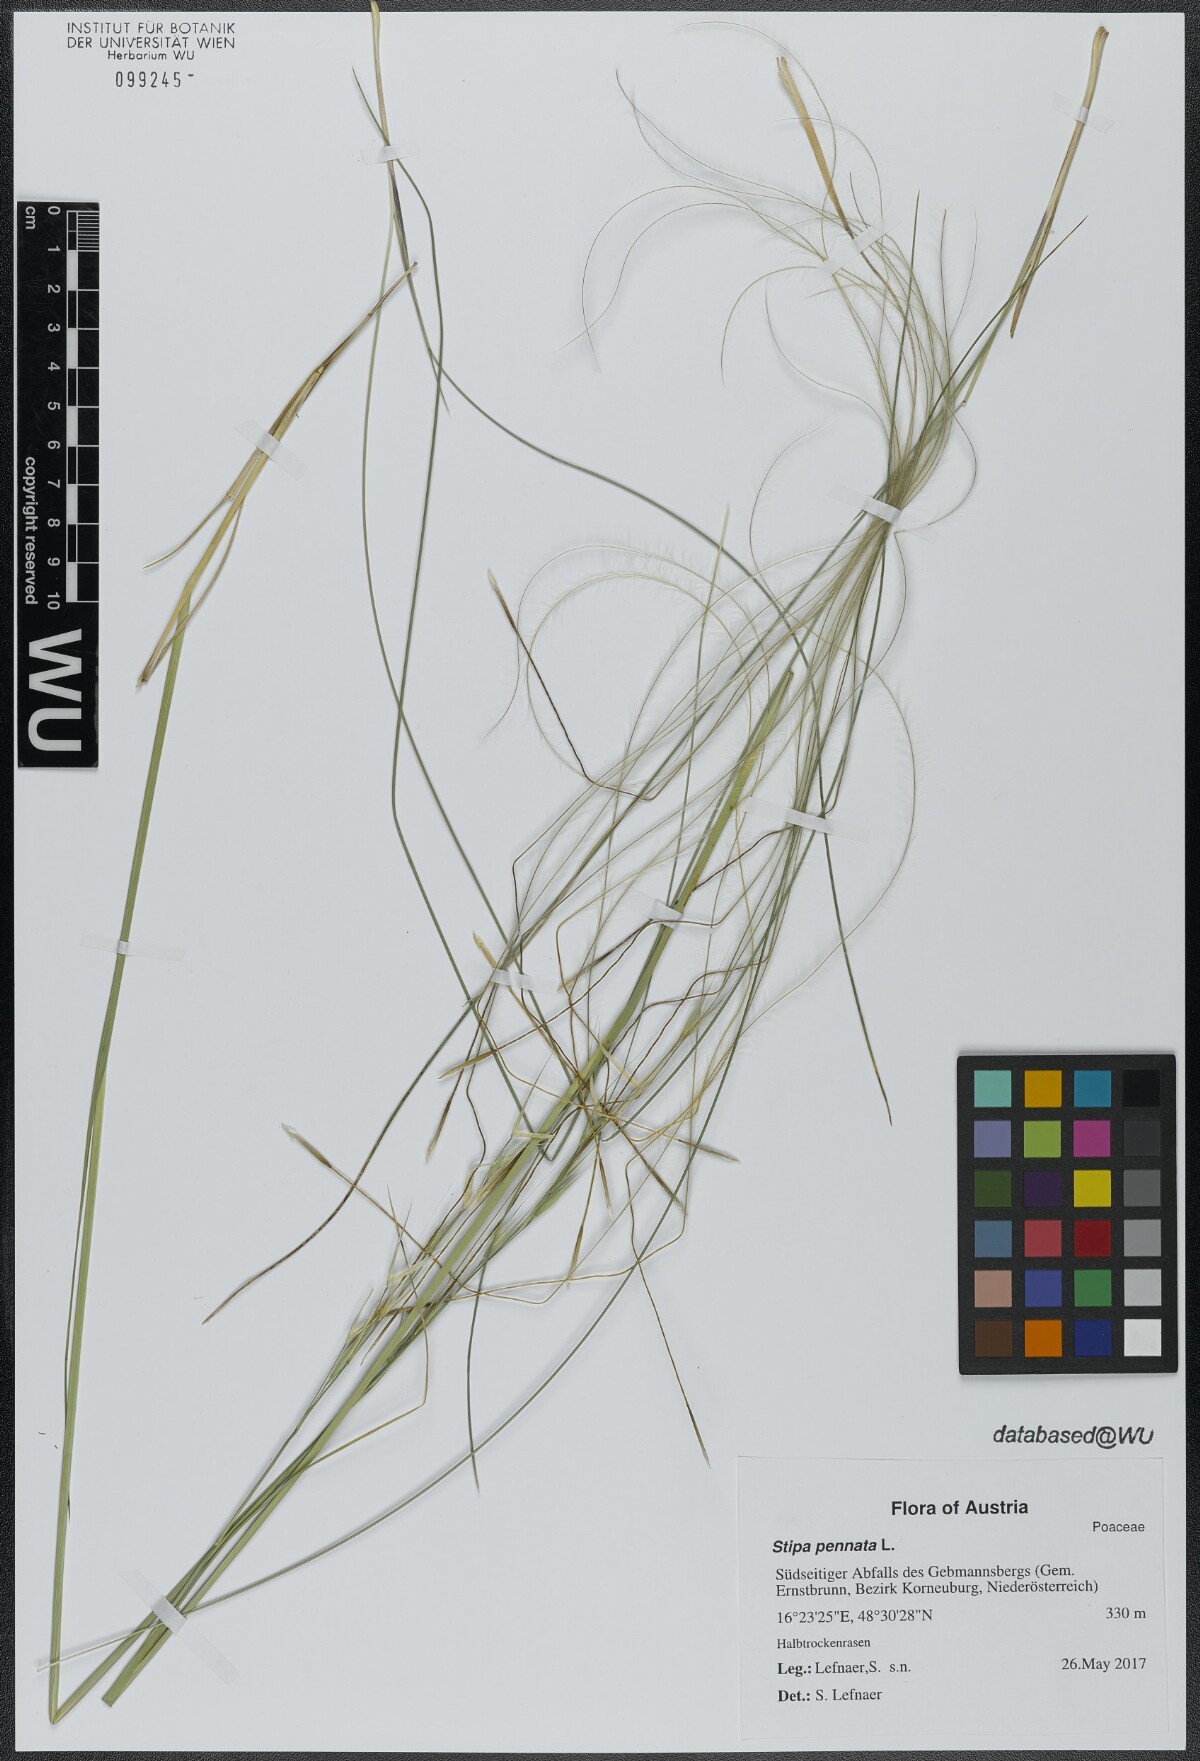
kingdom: Plantae
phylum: Tracheophyta
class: Liliopsida
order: Poales
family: Poaceae
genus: Stipa
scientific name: Stipa pennata
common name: European feather grass
